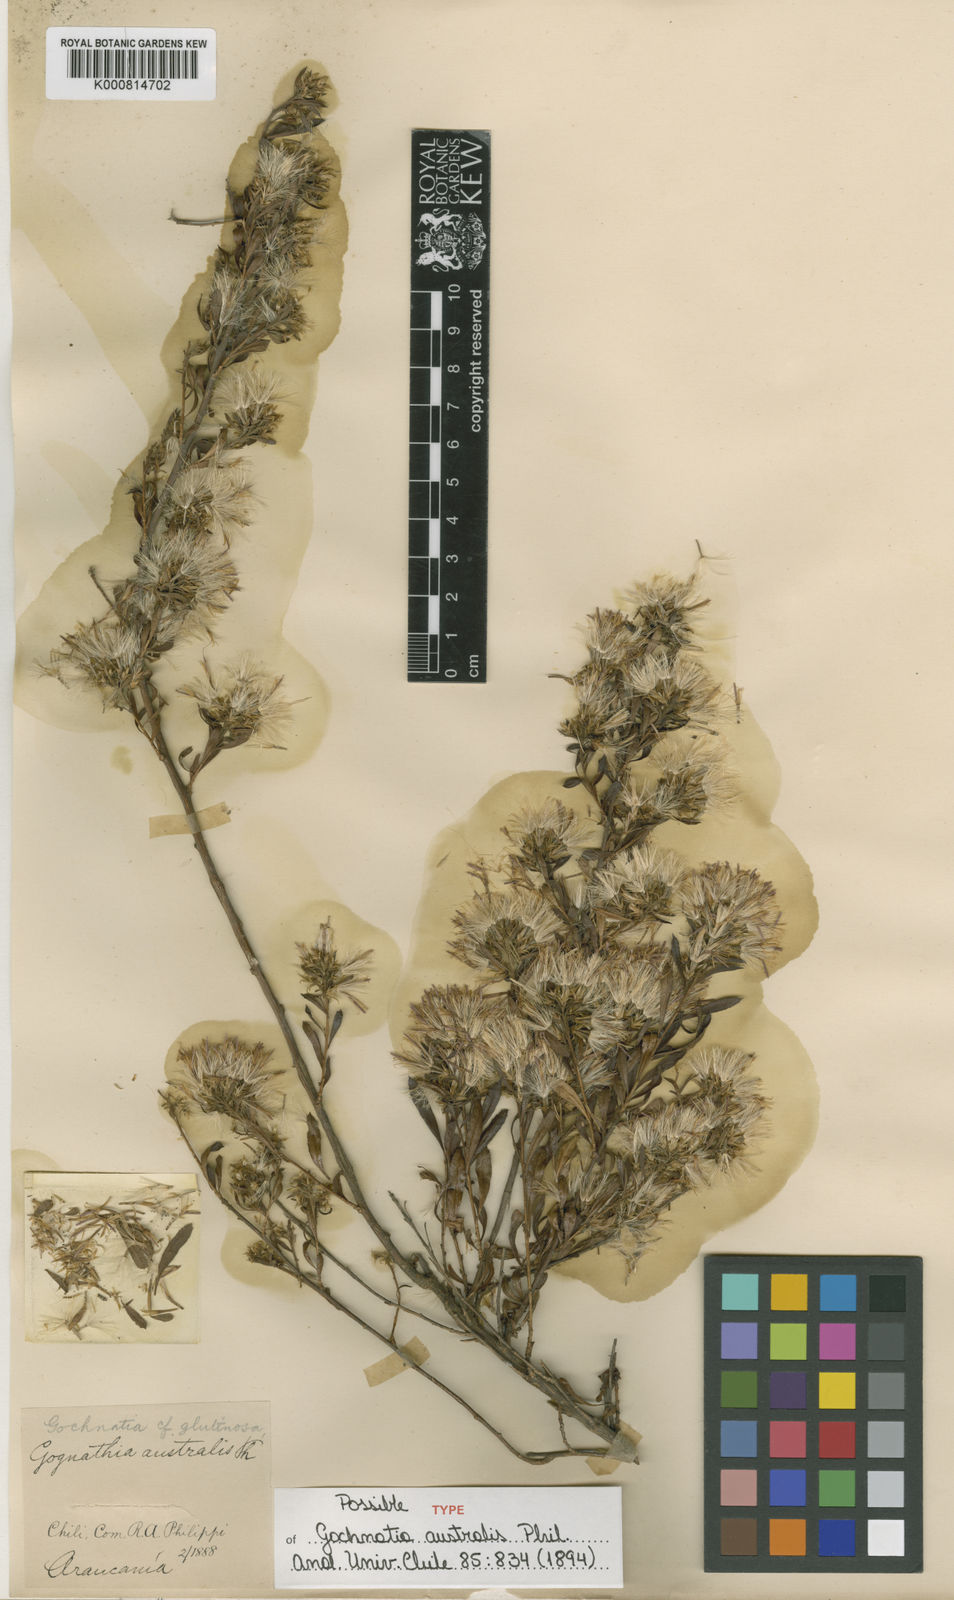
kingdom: Plantae
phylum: Tracheophyta
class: Magnoliopsida
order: Asterales
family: Asteraceae
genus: Gochnatia
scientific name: Gochnatia foliolosa
